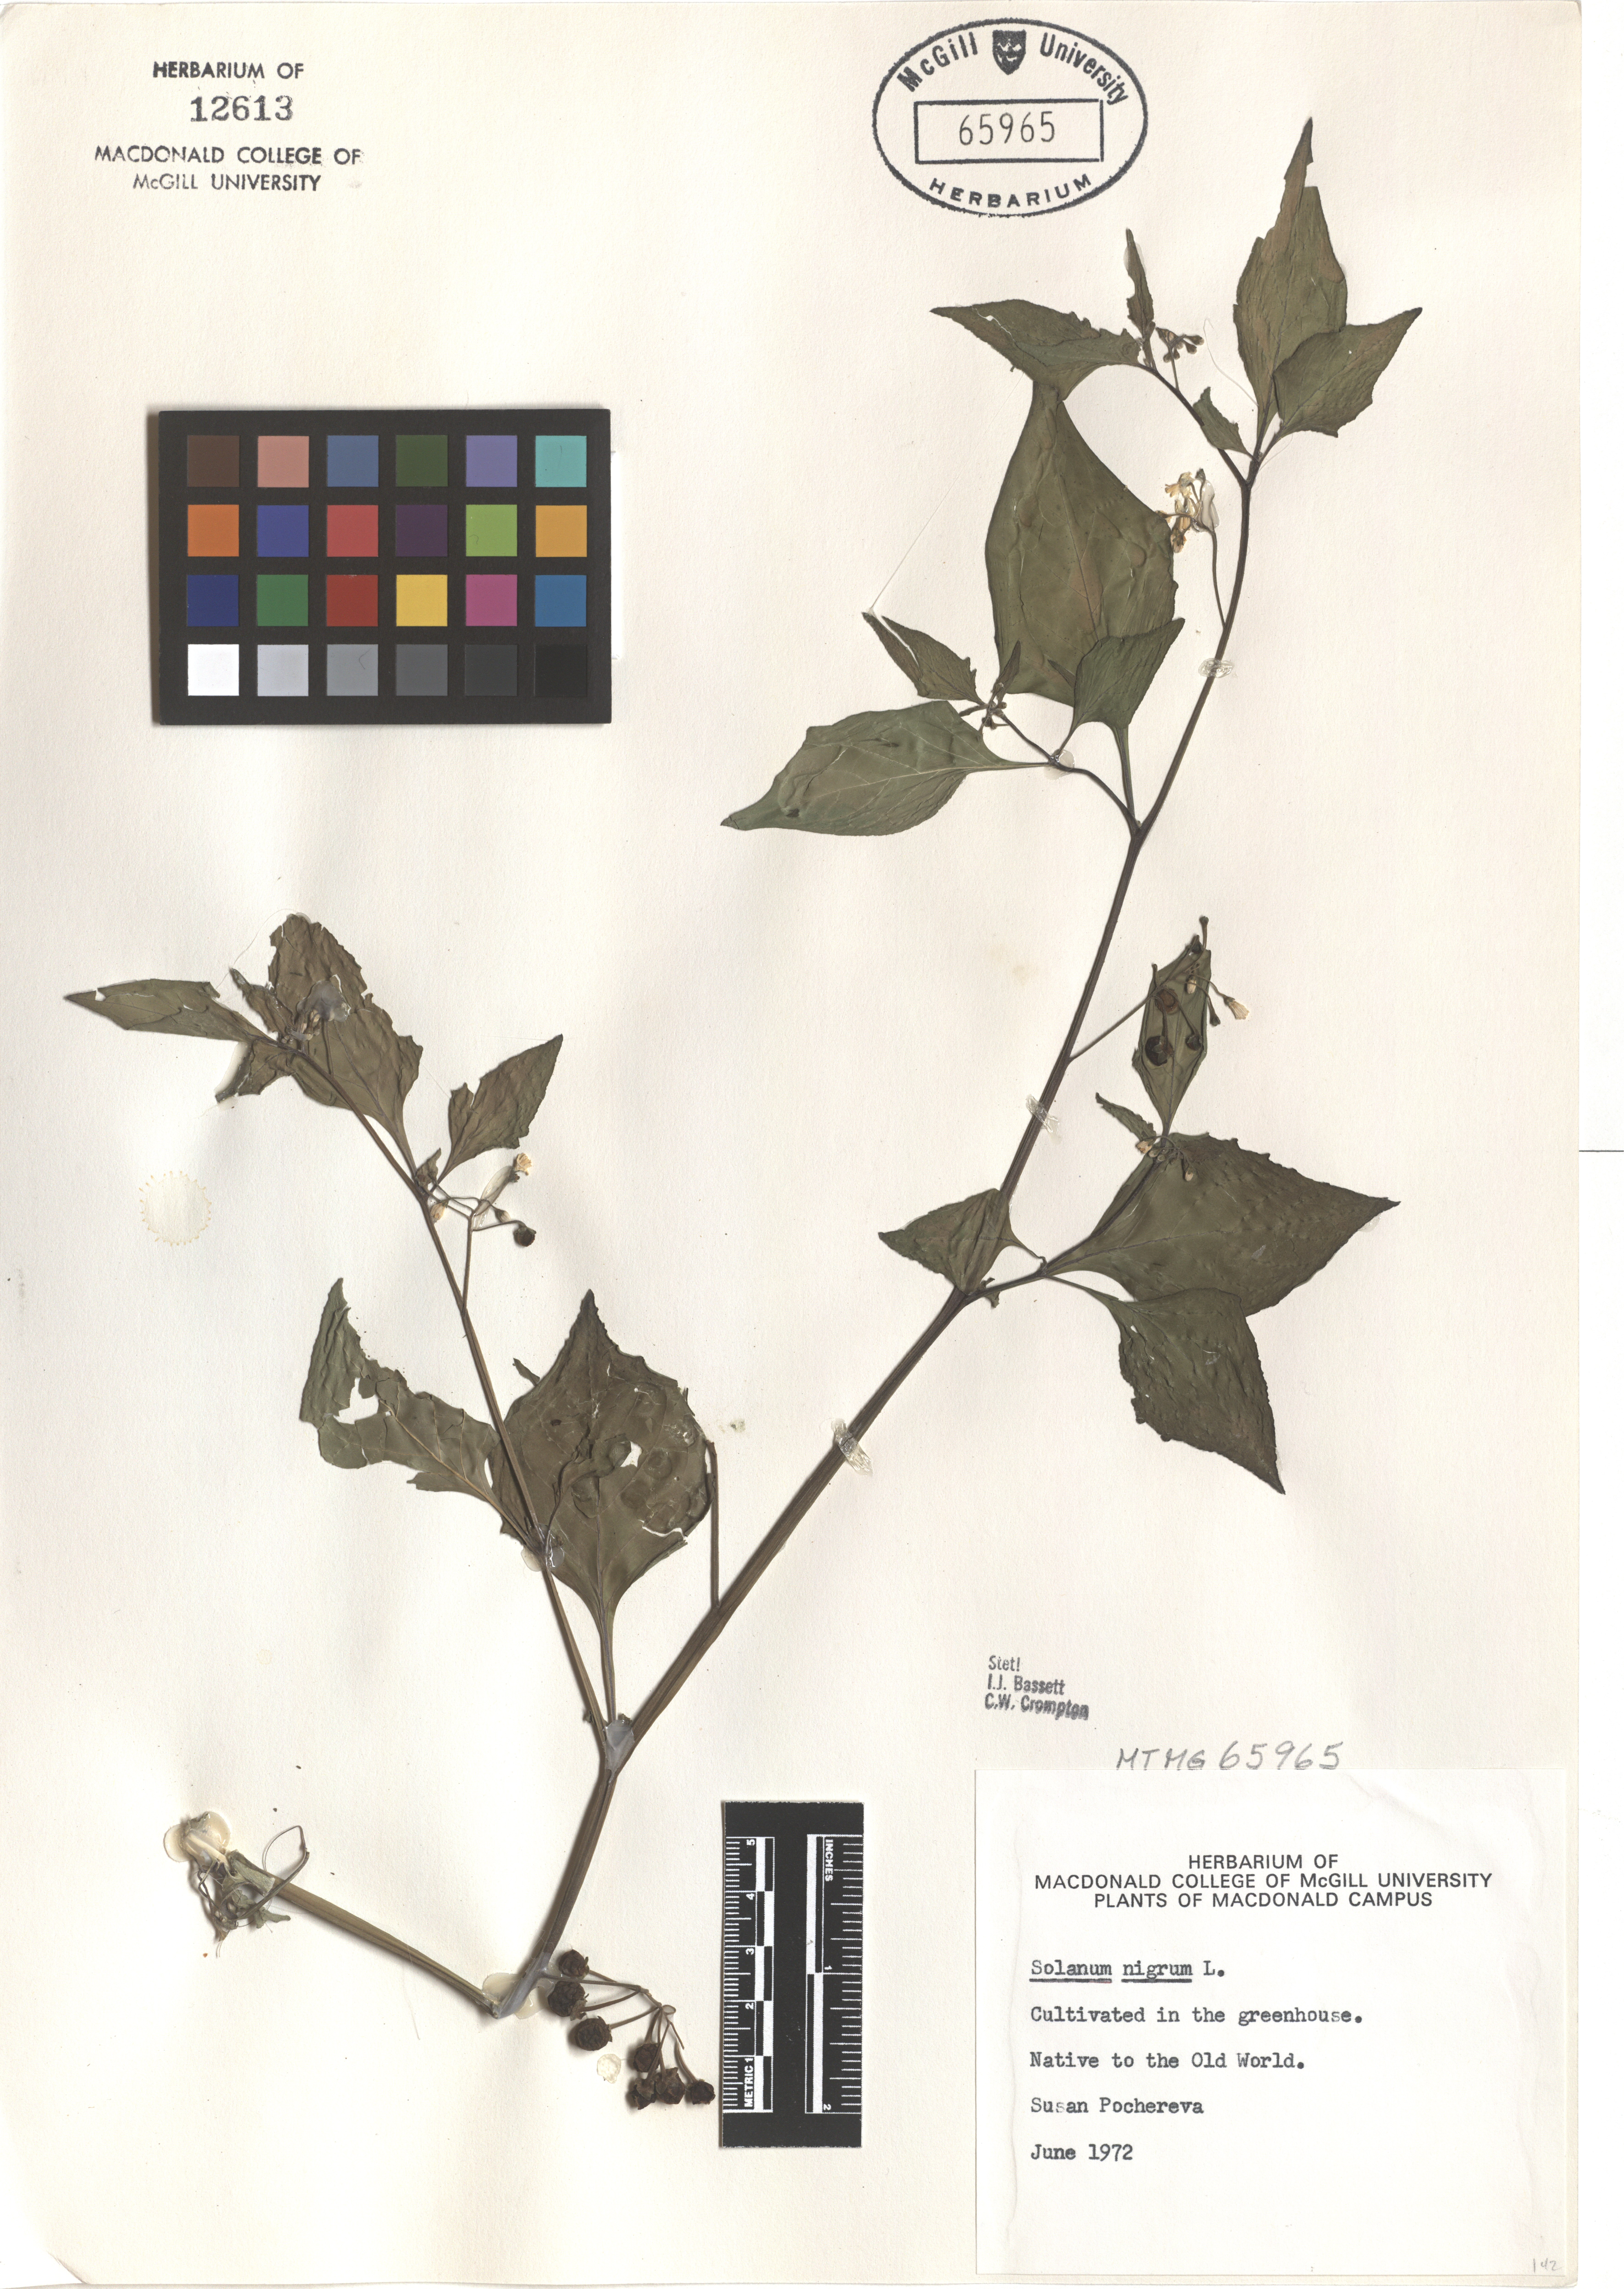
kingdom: Plantae
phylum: Tracheophyta
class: Magnoliopsida
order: Solanales
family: Solanaceae
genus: Solanum
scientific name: Solanum americanum
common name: American black nightshade
